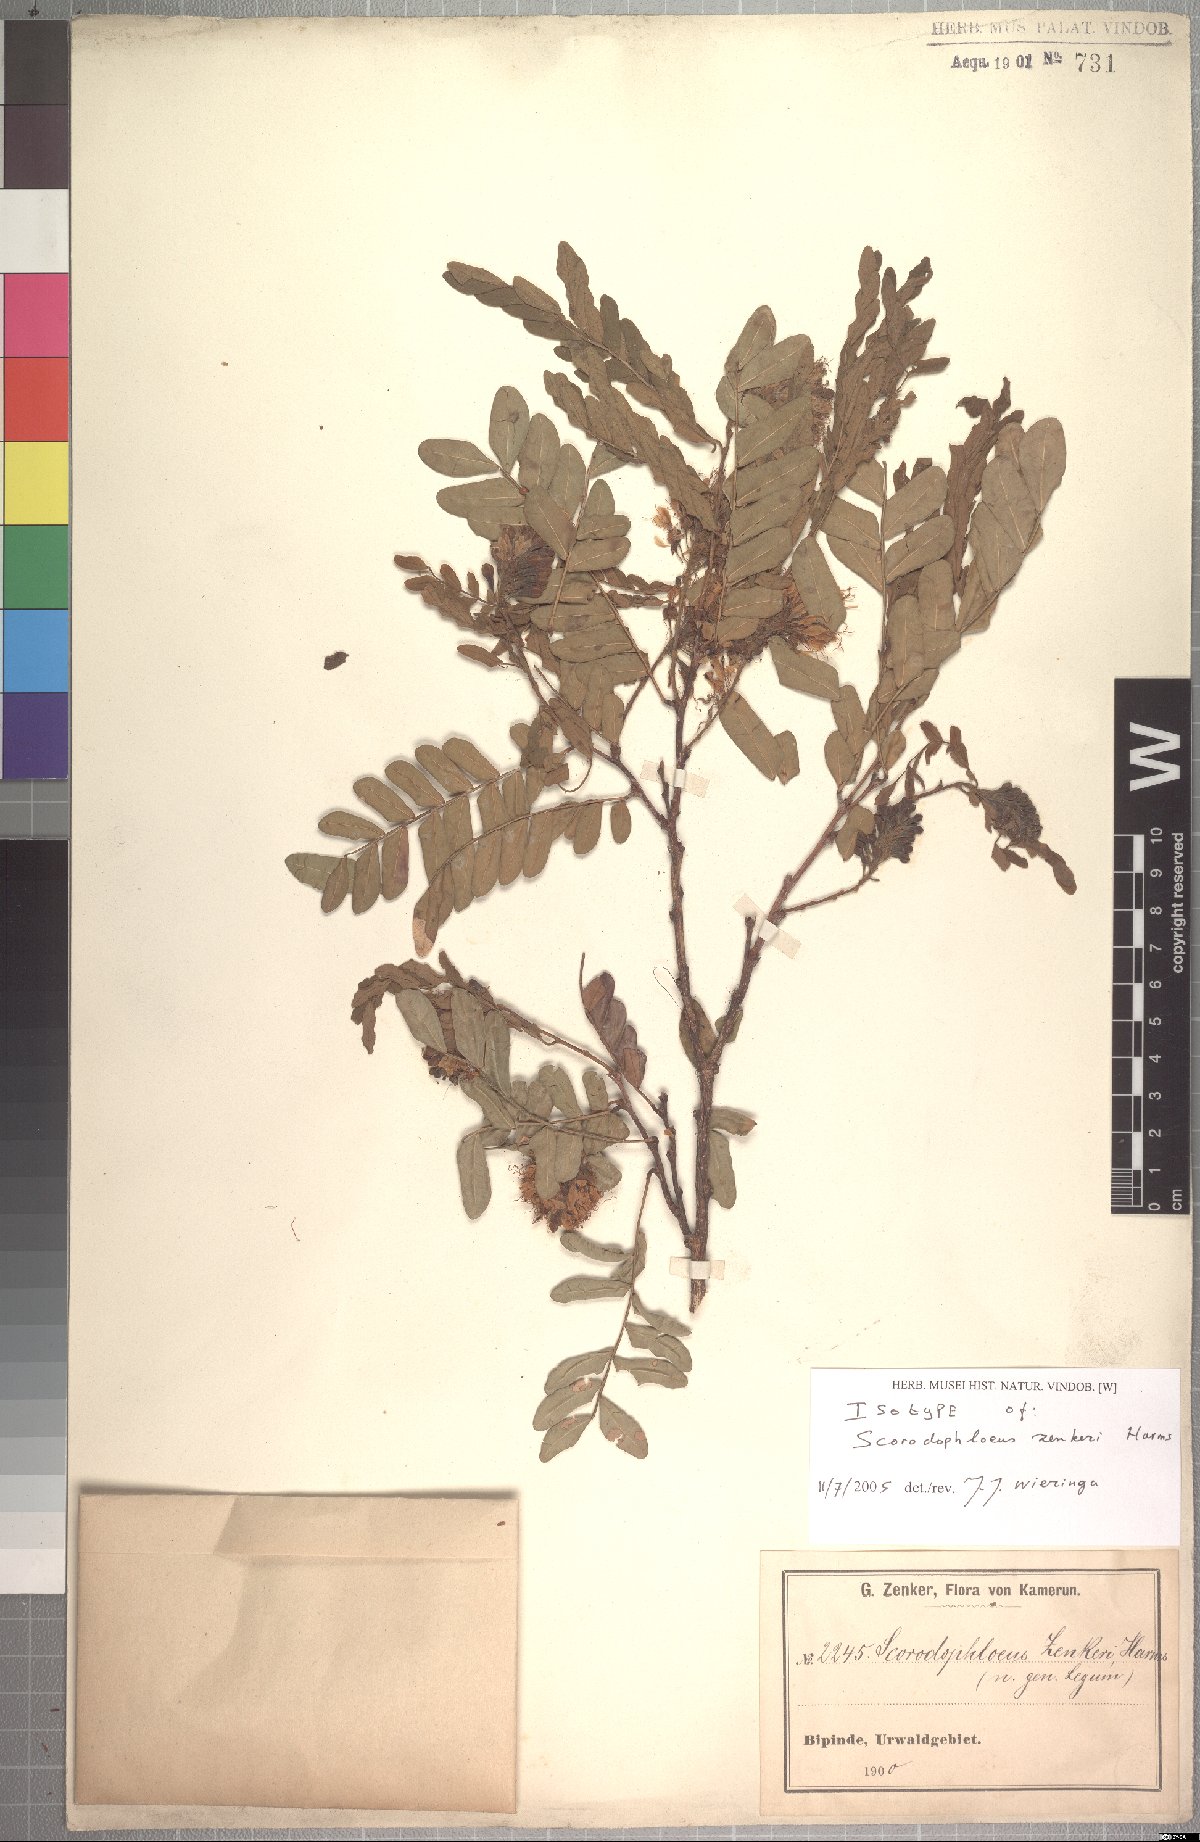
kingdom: Plantae
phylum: Tracheophyta
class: Magnoliopsida
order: Fabales
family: Fabaceae
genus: Scorodophloeus
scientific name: Scorodophloeus zenkeri
